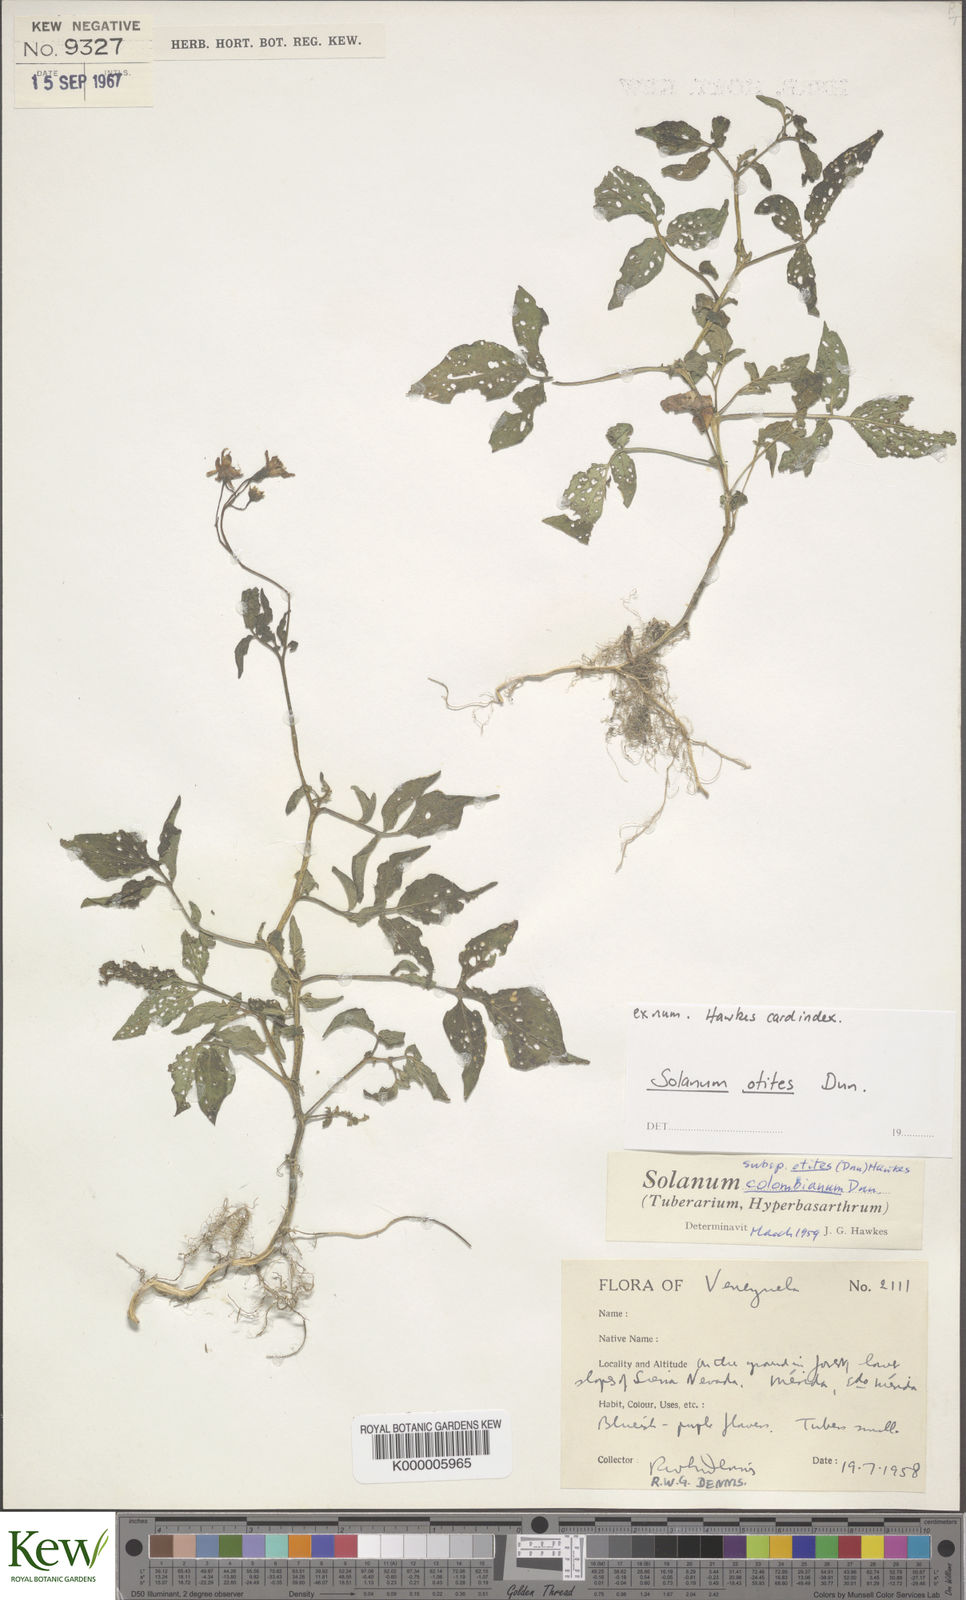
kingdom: Plantae
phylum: Tracheophyta
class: Magnoliopsida
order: Solanales
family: Solanaceae
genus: Solanum
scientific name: Solanum colombianum
